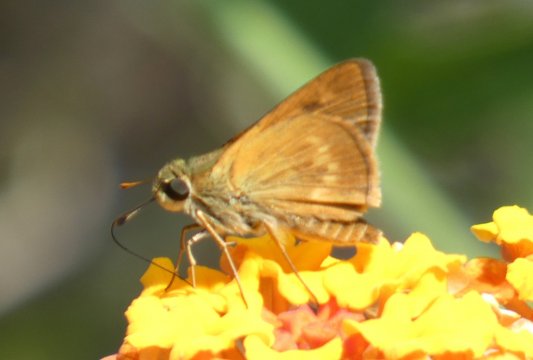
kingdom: Animalia
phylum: Arthropoda
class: Insecta
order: Lepidoptera
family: Hesperiidae
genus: Wallengrenia
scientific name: Wallengrenia otho
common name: Southern Broken-Dash
